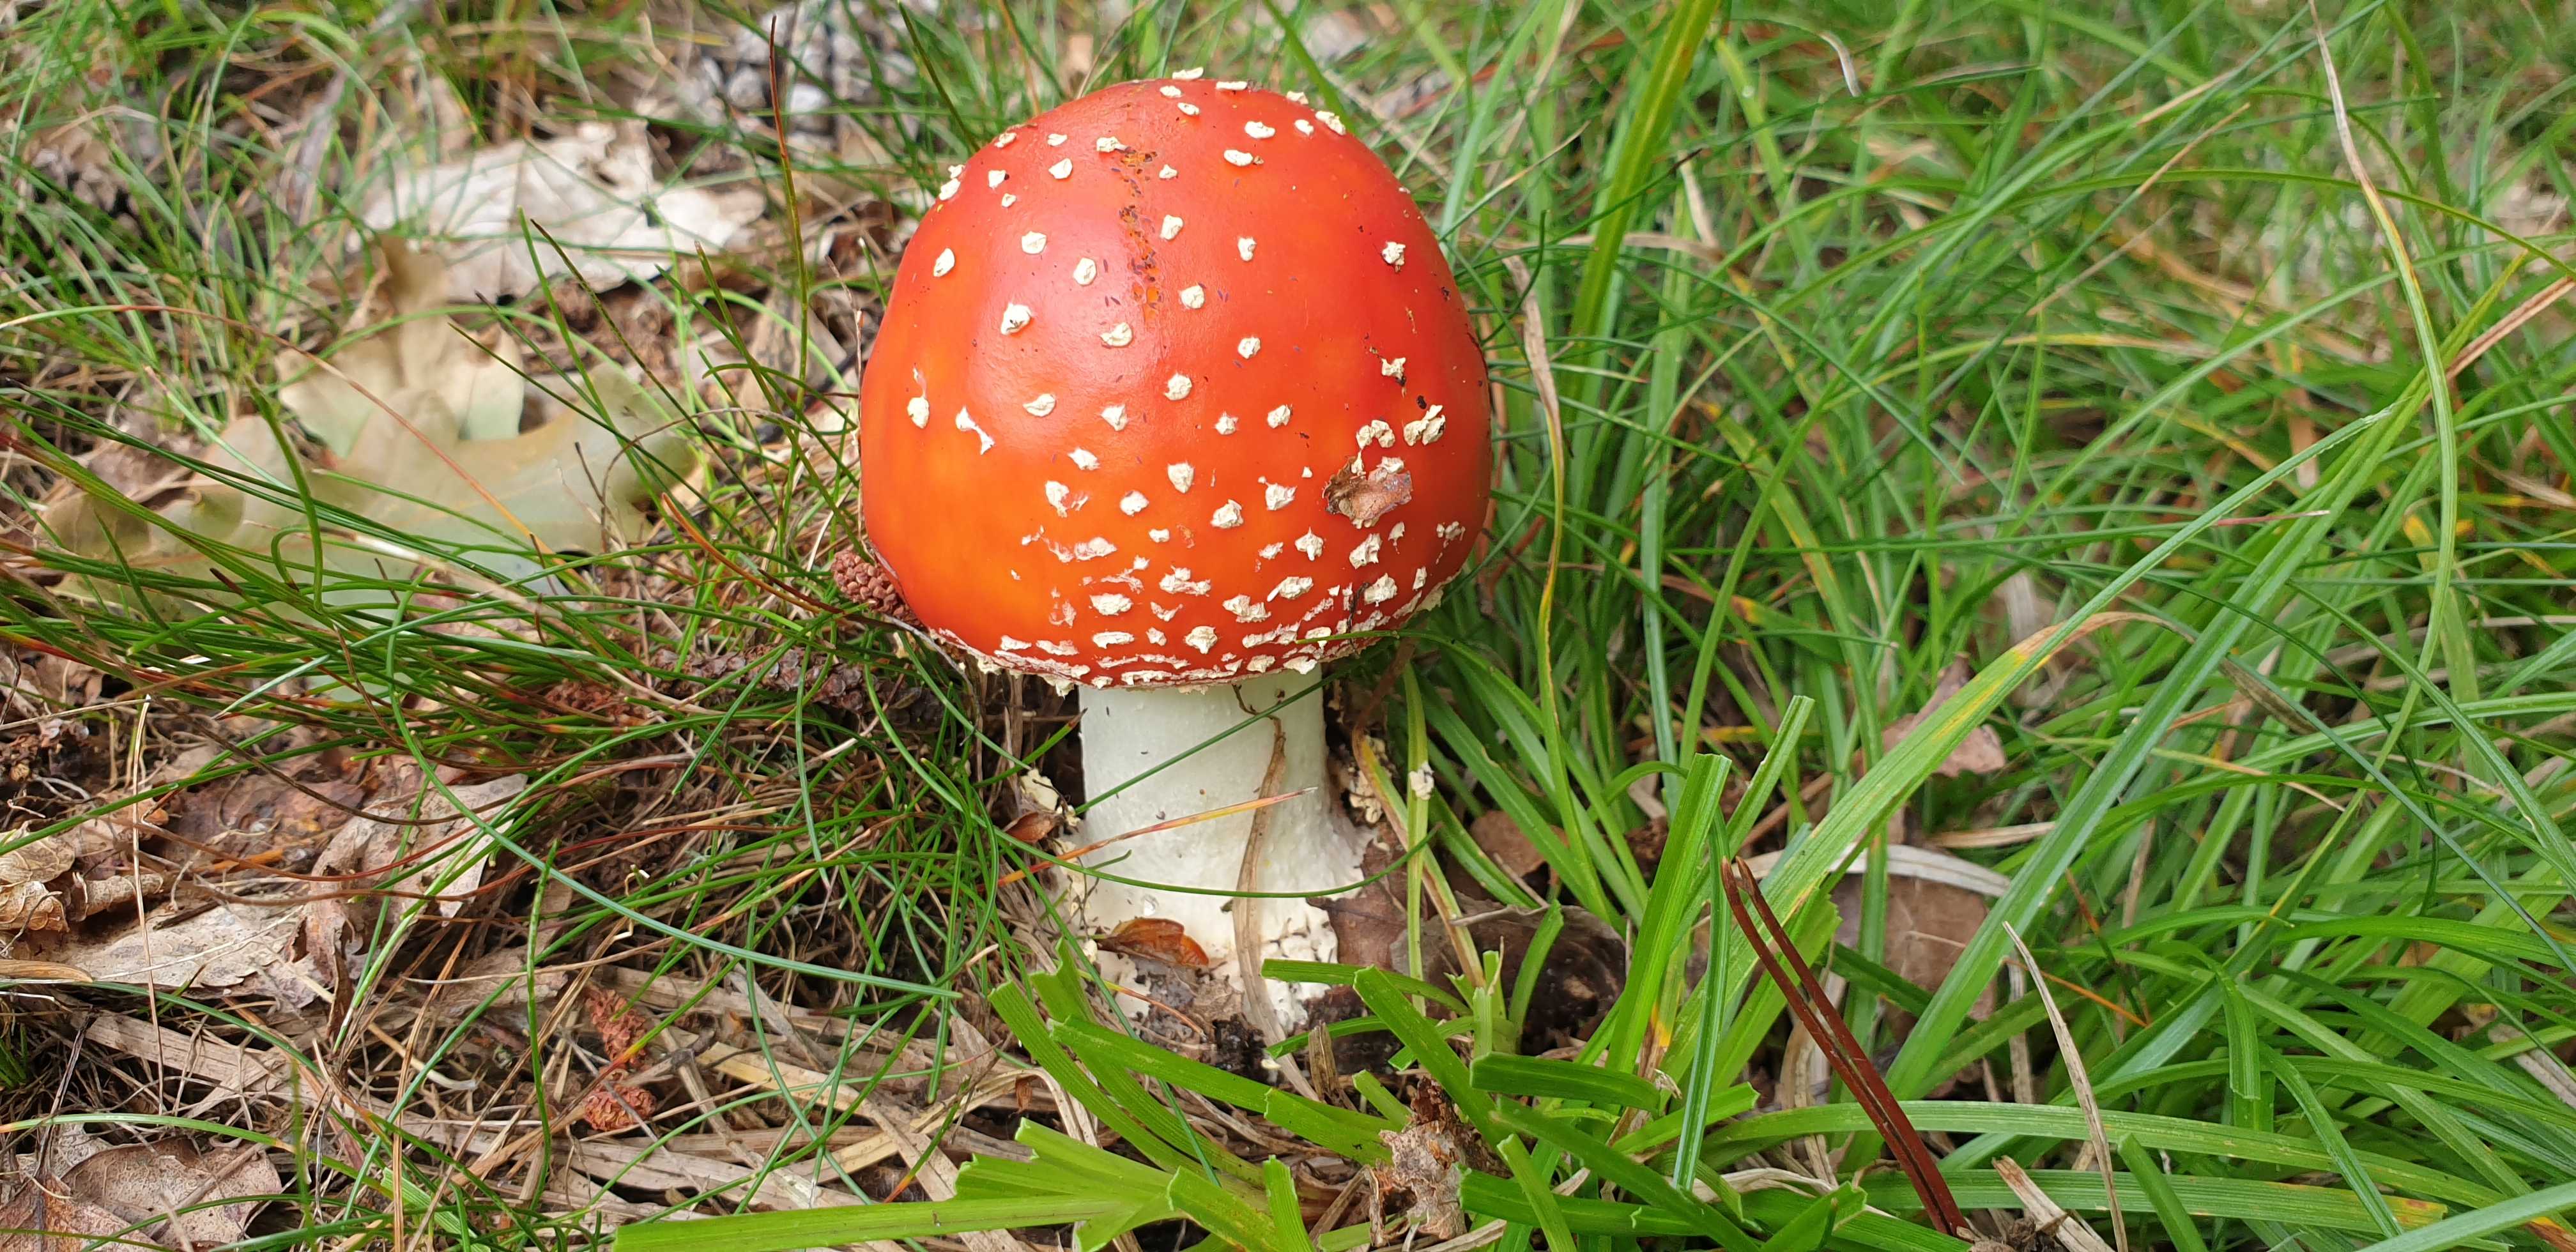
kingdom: Fungi
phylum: Basidiomycota
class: Agaricomycetes
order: Agaricales
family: Amanitaceae
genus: Amanita
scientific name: Amanita muscaria
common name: rød fluesvamp
